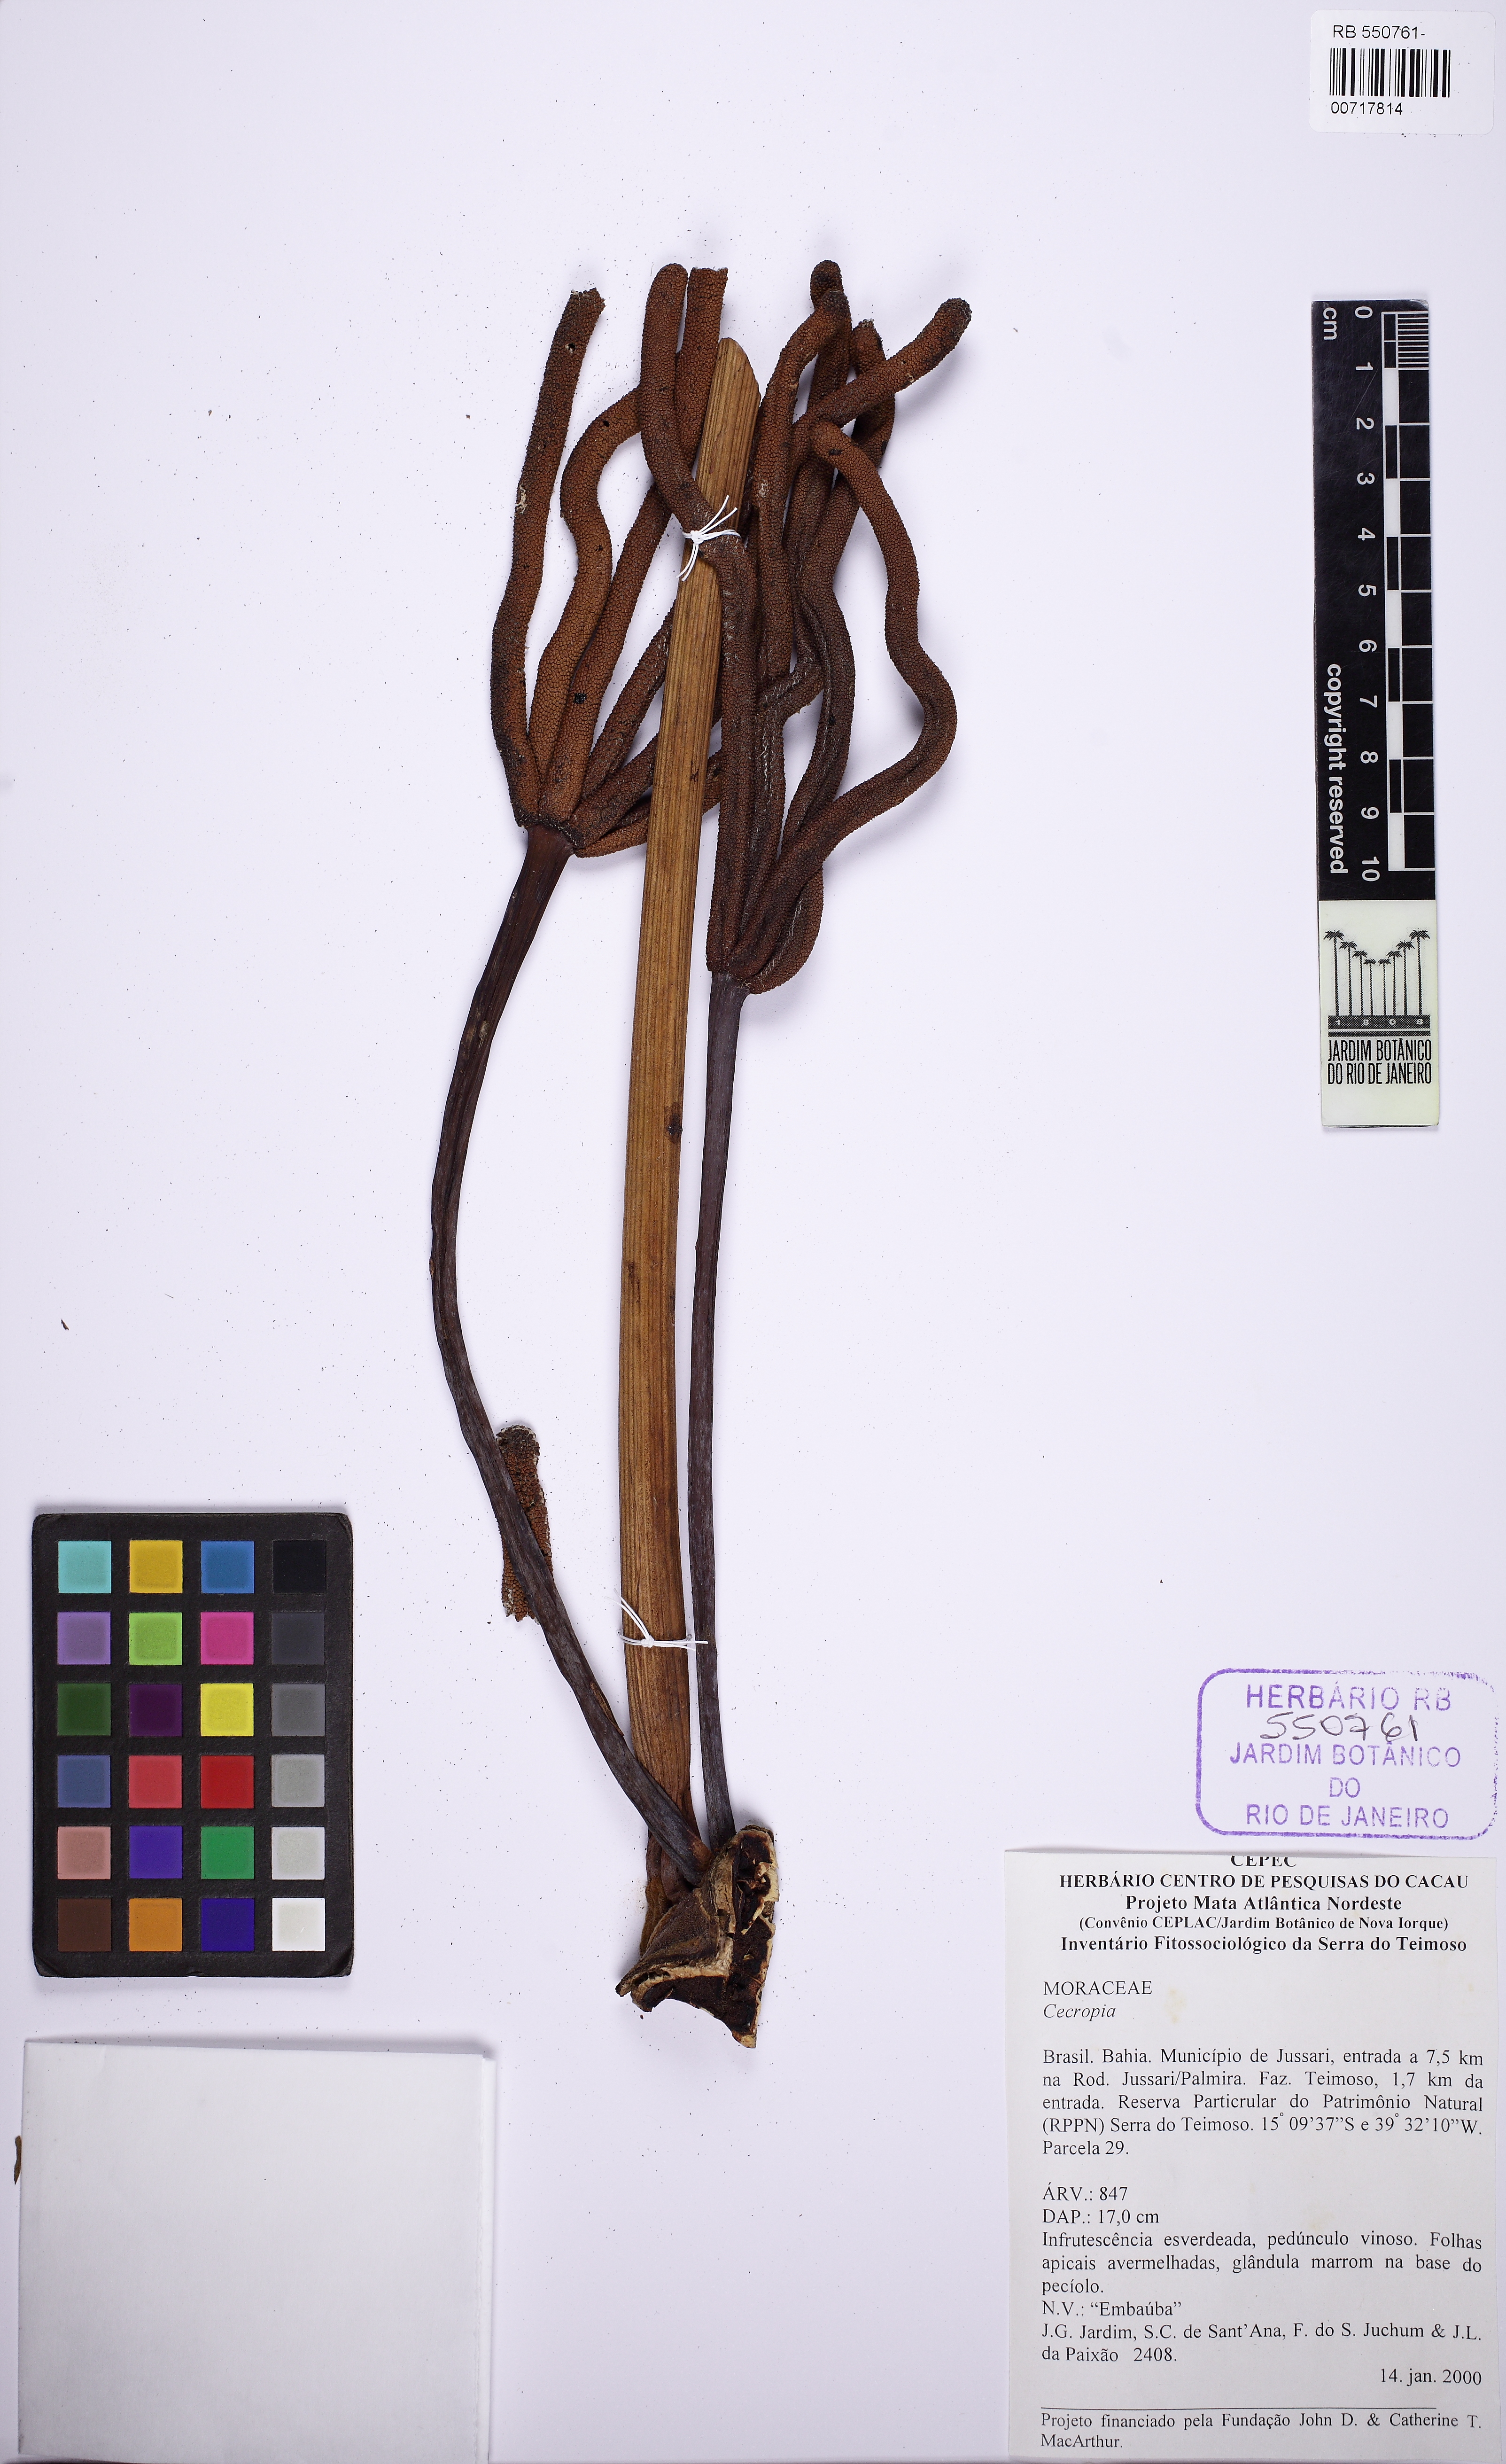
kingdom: Plantae
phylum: Tracheophyta
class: Magnoliopsida
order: Rosales
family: Urticaceae
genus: Cecropia
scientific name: Cecropia glaziovii
